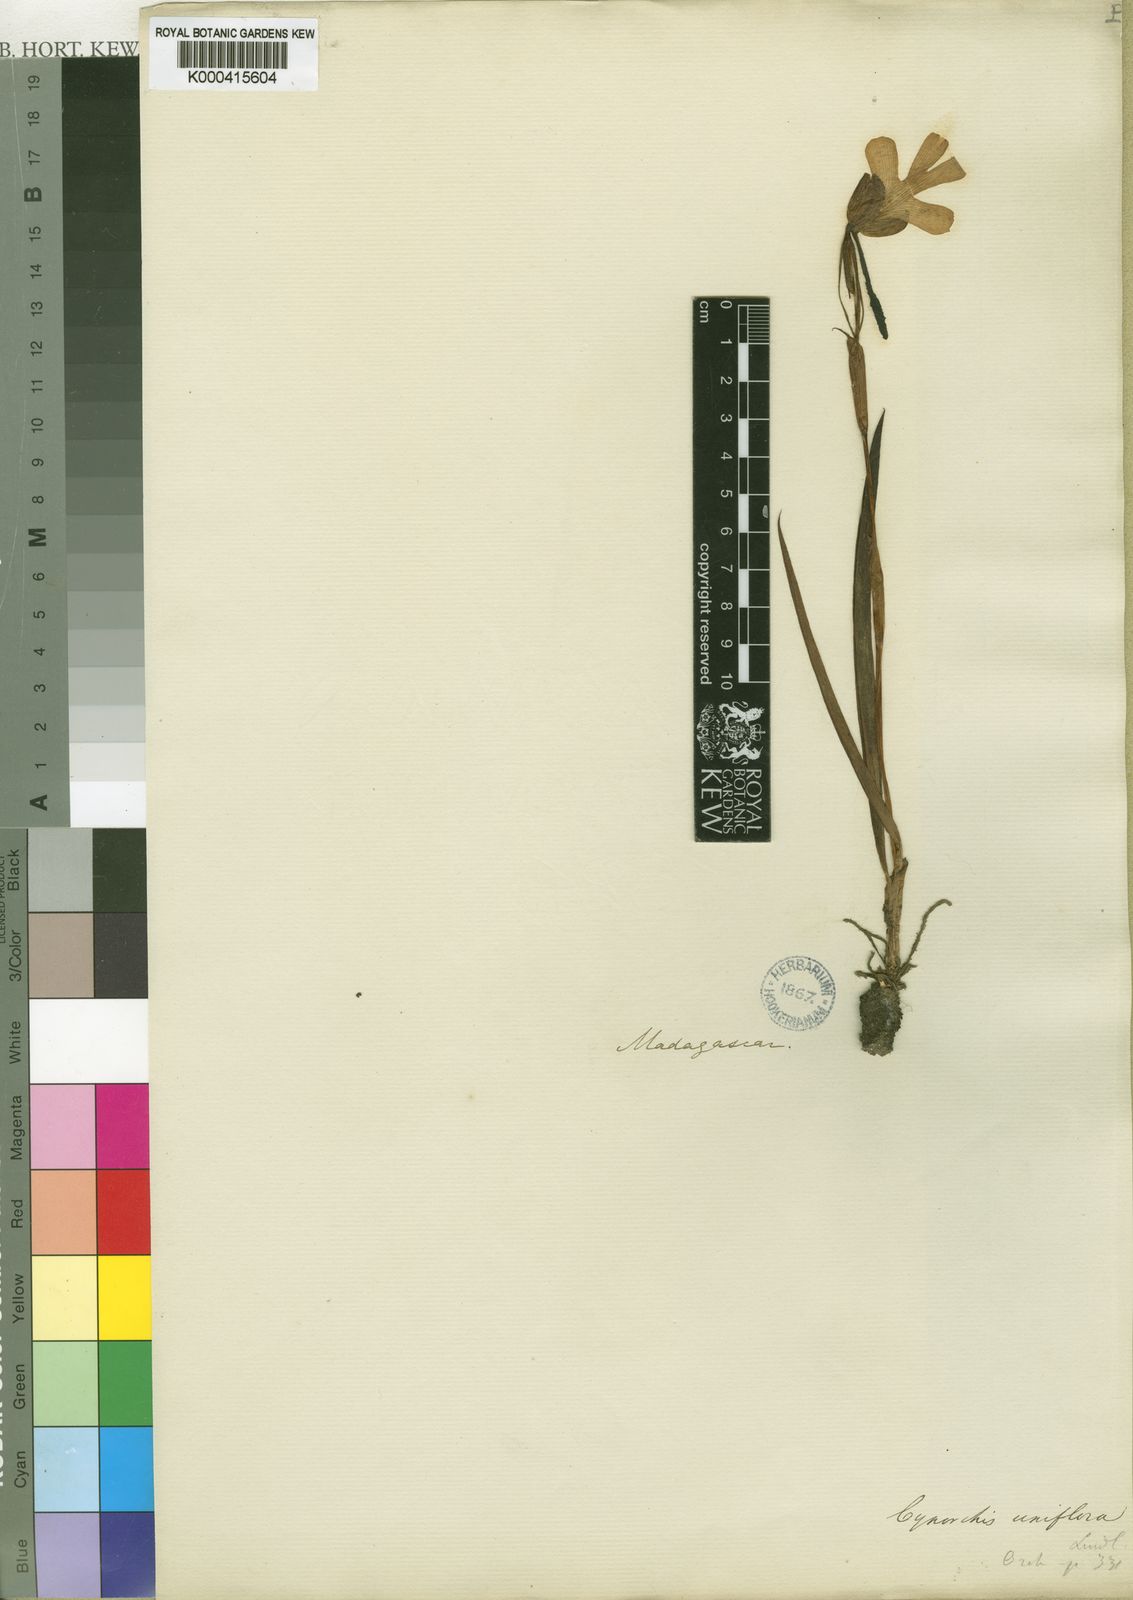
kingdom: Plantae
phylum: Tracheophyta
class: Liliopsida
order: Asparagales
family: Orchidaceae
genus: Cynorkis
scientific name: Cynorkis uniflora
